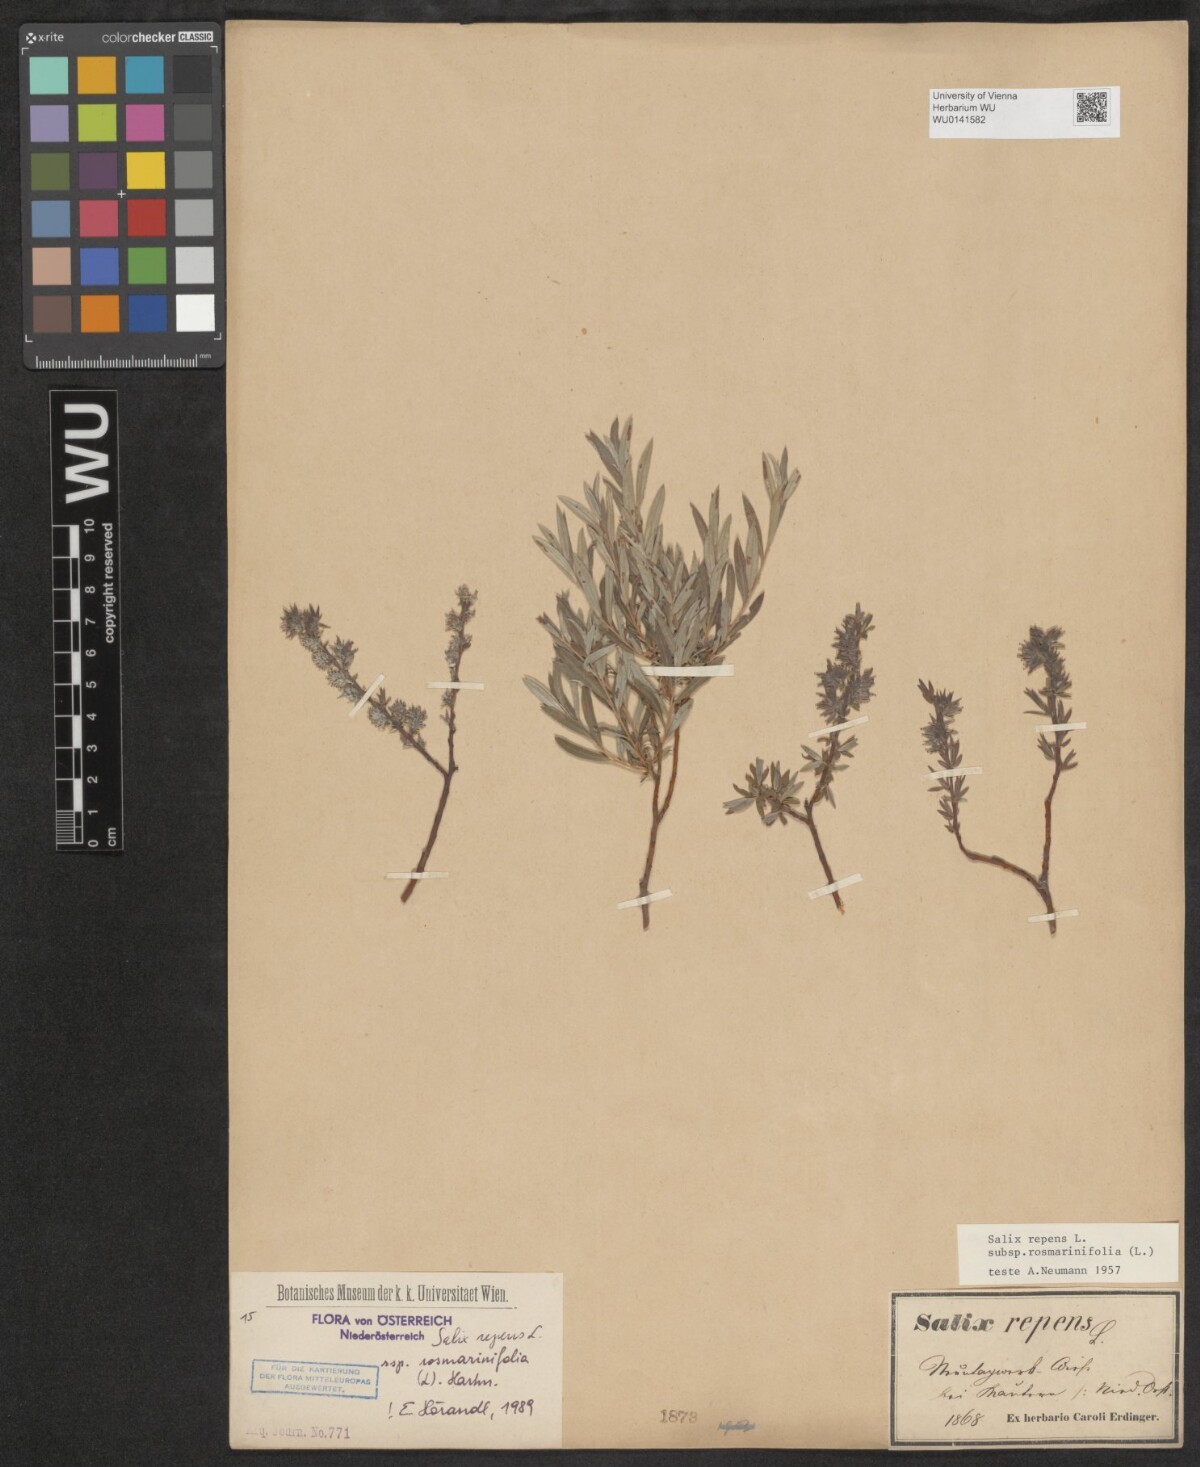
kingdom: Plantae
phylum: Tracheophyta
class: Magnoliopsida
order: Malpighiales
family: Salicaceae
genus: Salix
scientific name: Salix repens
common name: Creeping willow
